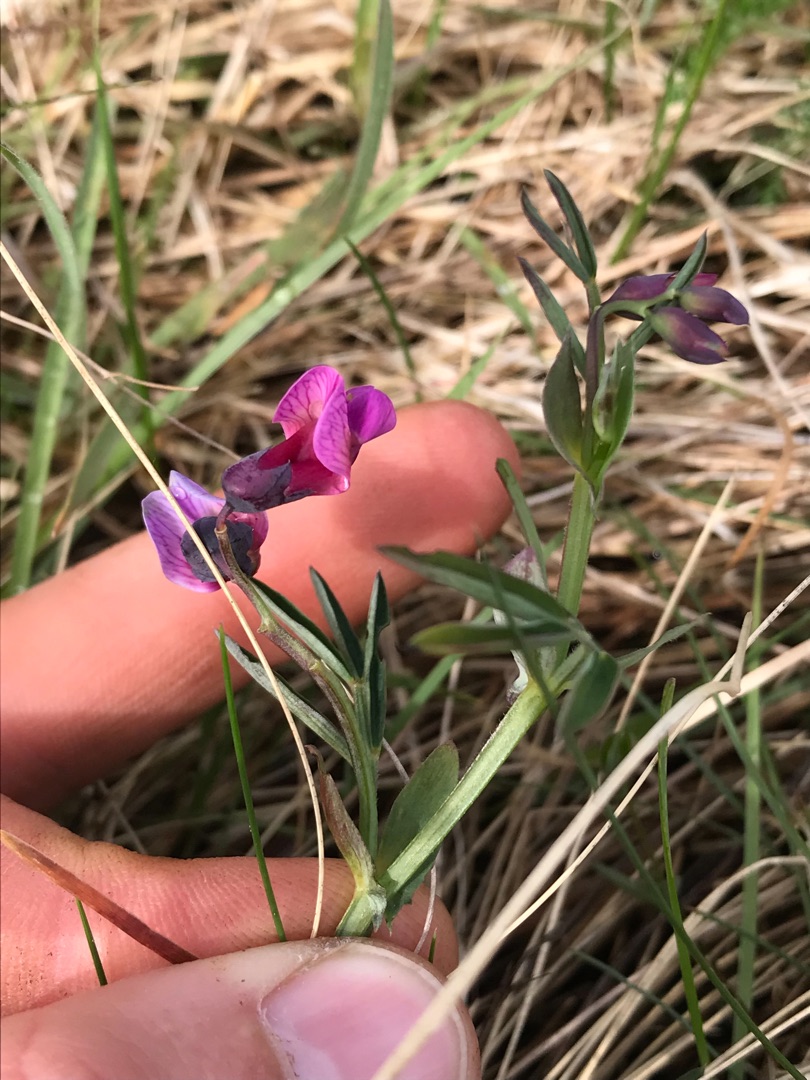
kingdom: Plantae
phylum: Tracheophyta
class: Magnoliopsida
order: Fabales
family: Fabaceae
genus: Lathyrus
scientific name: Lathyrus linifolius
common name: Krat-fladbælg
